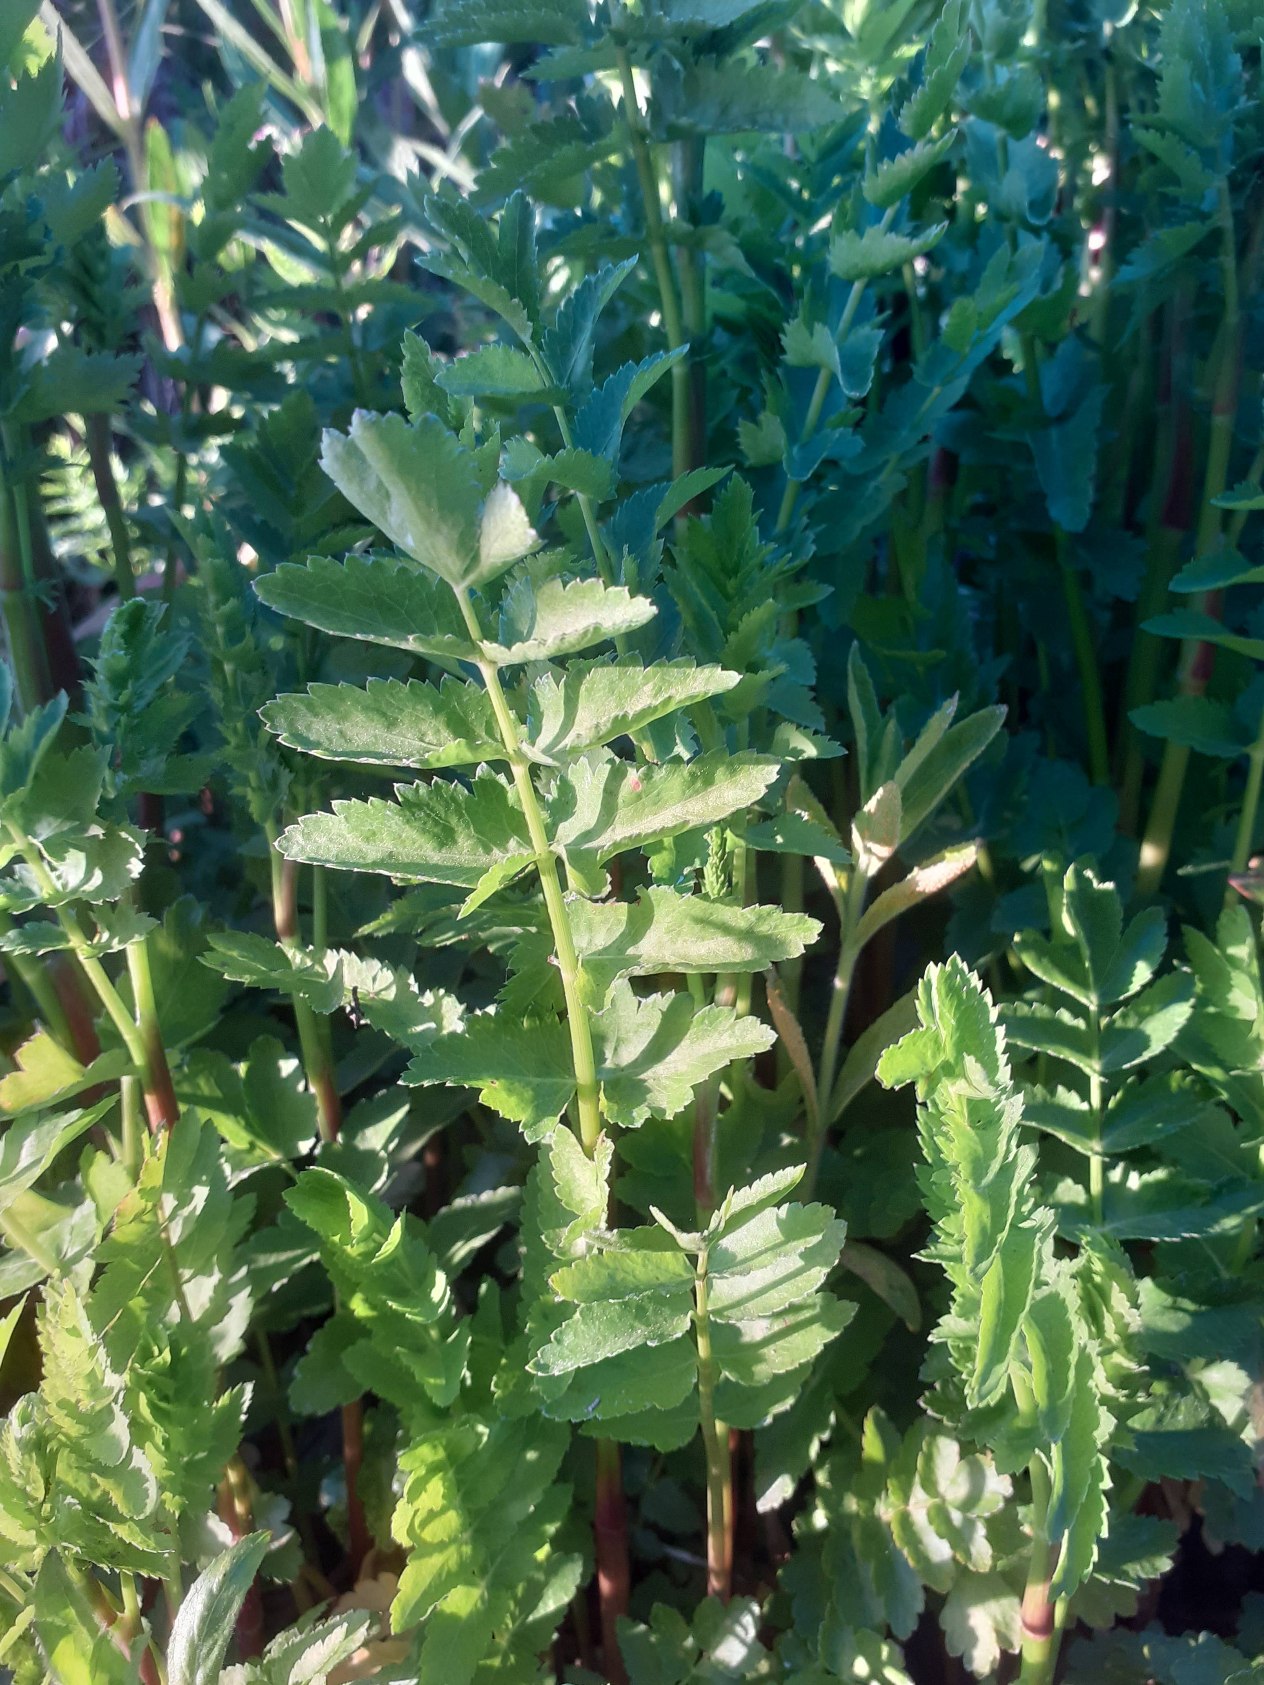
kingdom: Plantae
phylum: Tracheophyta
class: Magnoliopsida
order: Apiales
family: Apiaceae
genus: Berula
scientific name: Berula erecta
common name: Sideskærm
